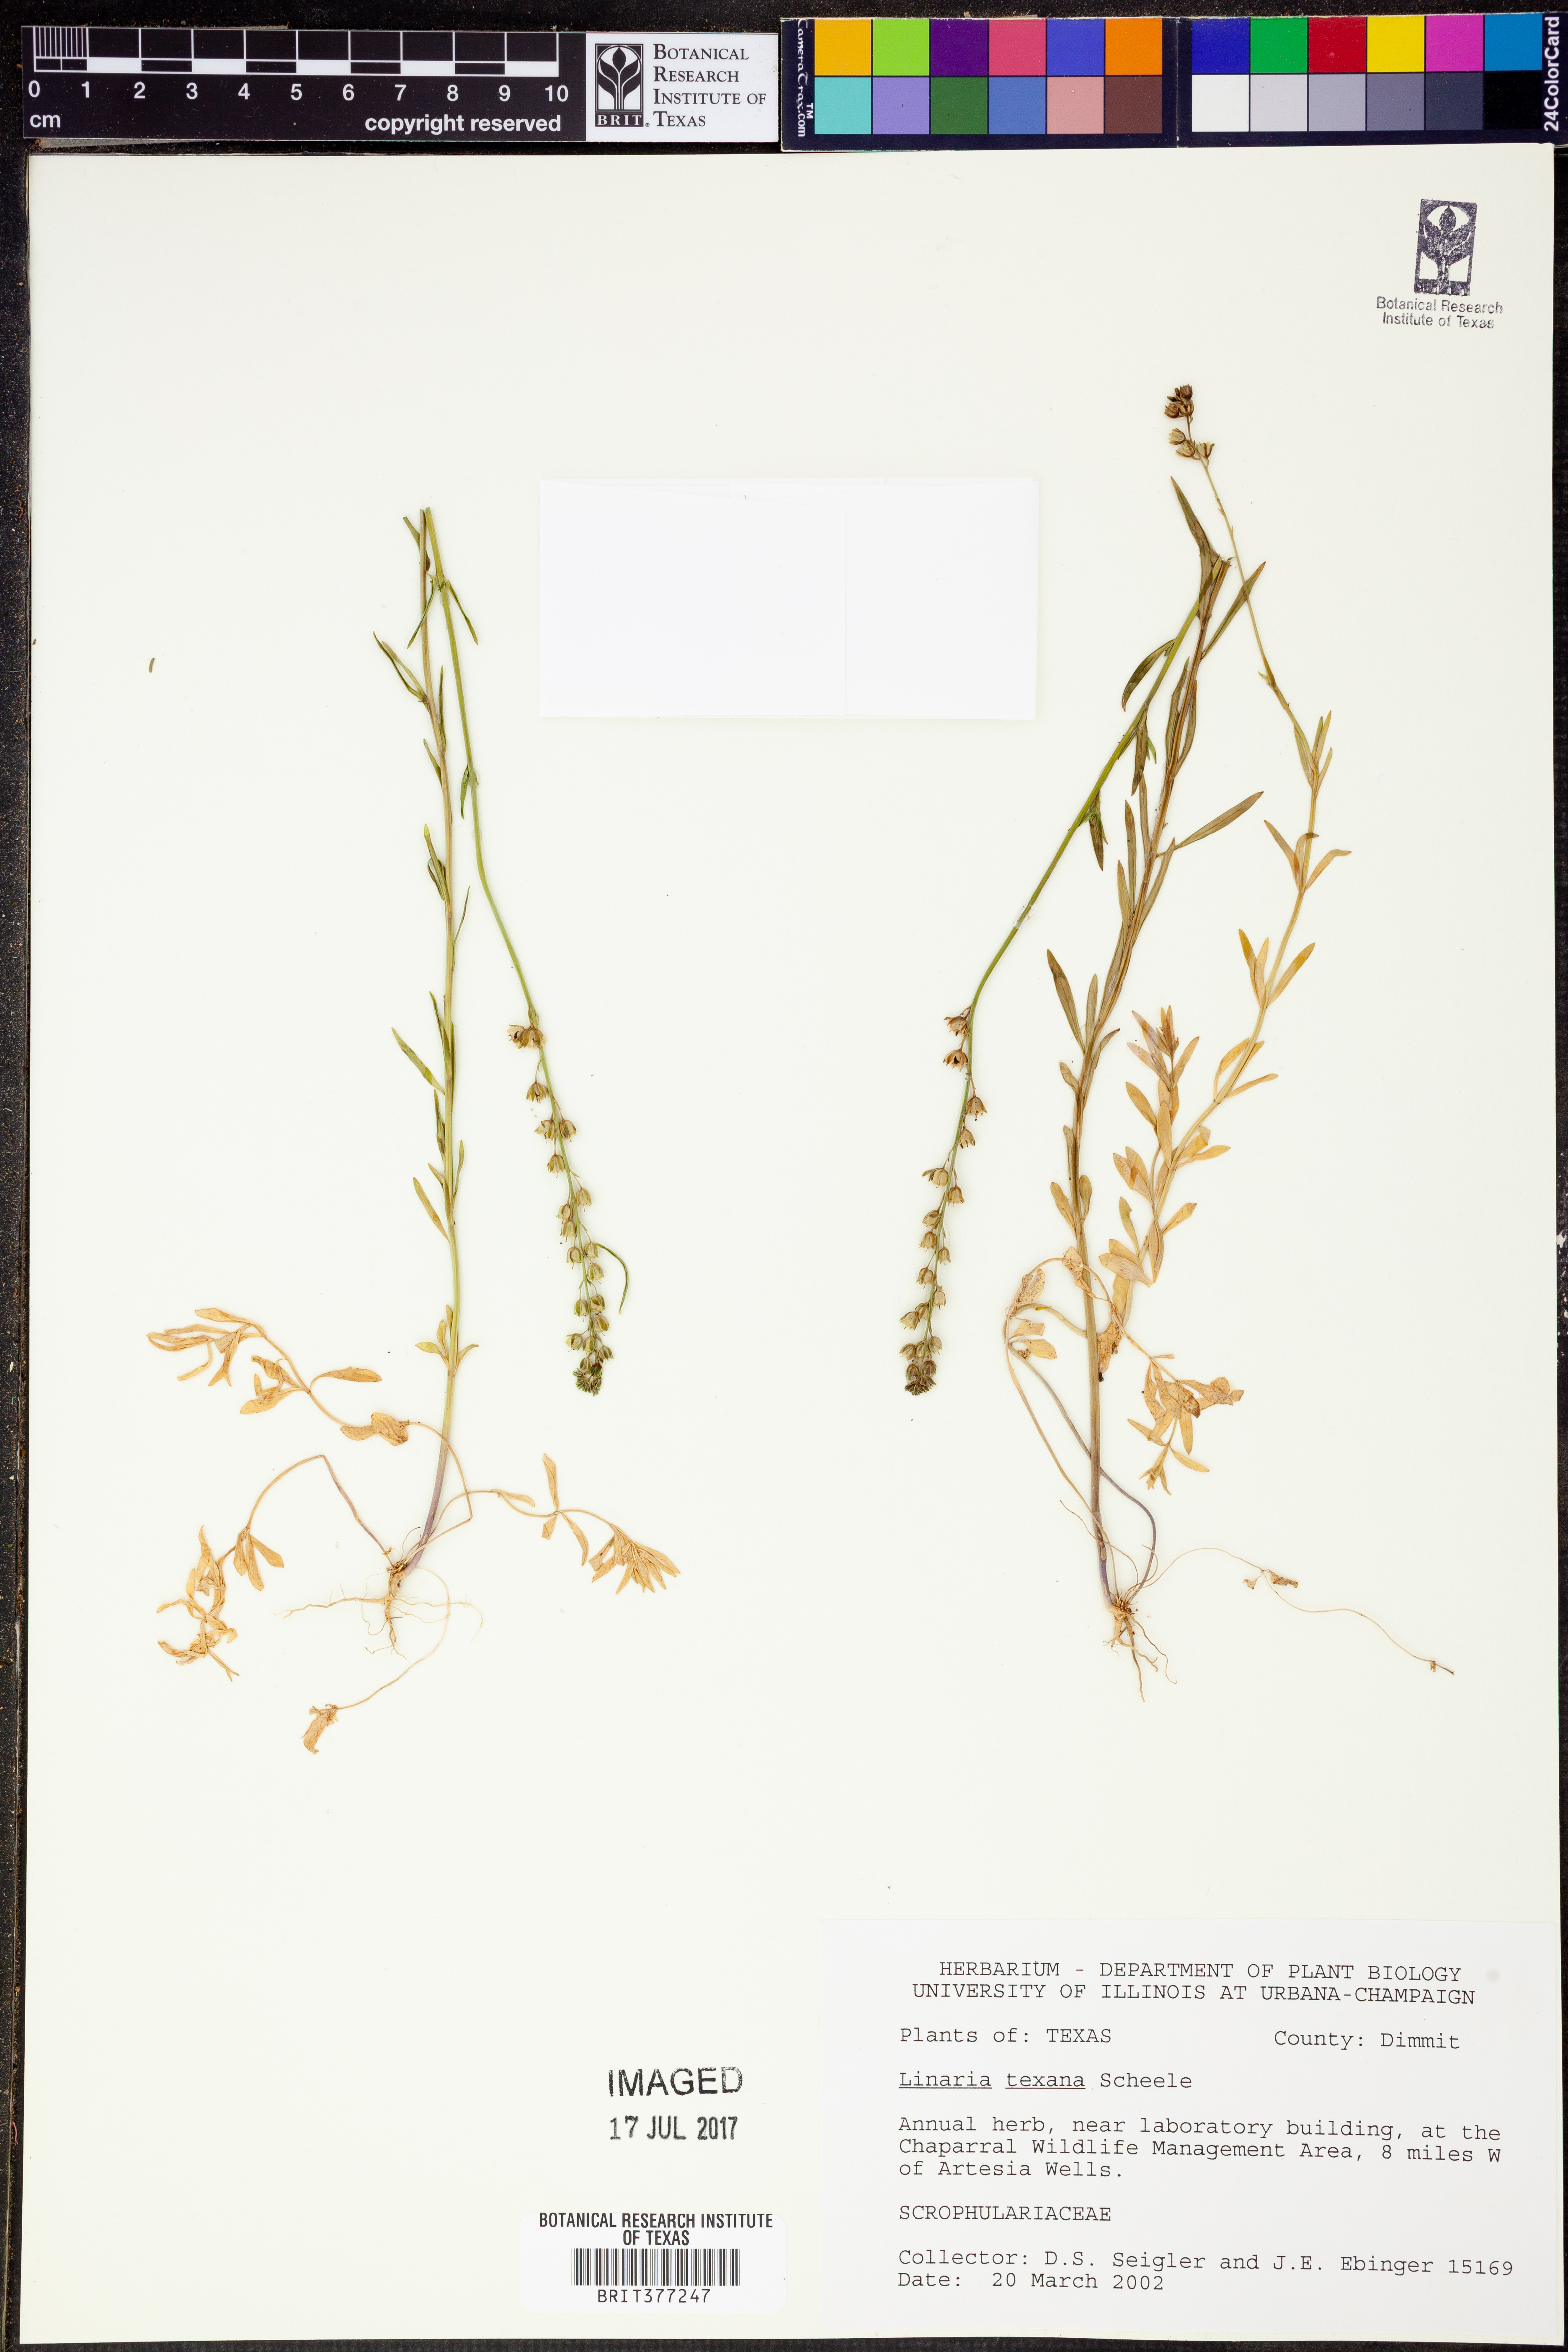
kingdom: Plantae
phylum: Tracheophyta
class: Magnoliopsida
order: Lamiales
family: Plantaginaceae
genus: Nuttallanthus
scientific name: Nuttallanthus texanus
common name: Texas toadflax
